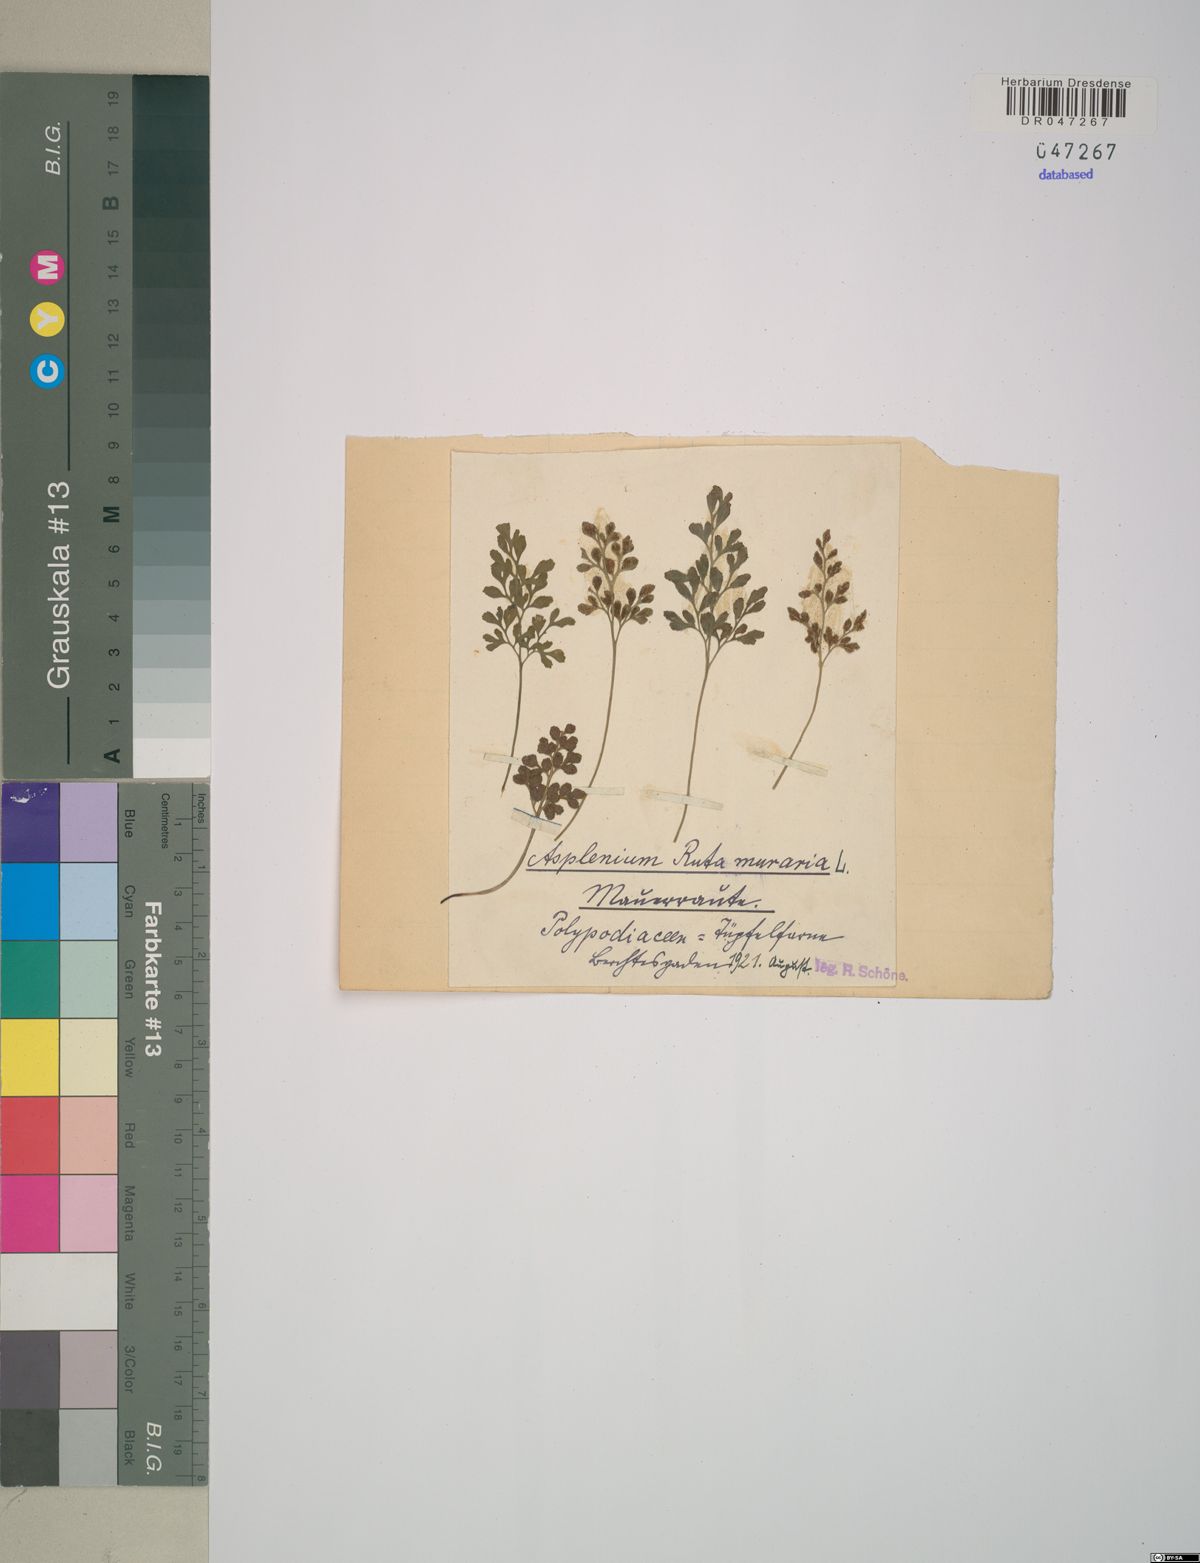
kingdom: Plantae
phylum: Tracheophyta
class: Polypodiopsida
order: Polypodiales
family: Aspleniaceae
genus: Asplenium
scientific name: Asplenium ruta-muraria
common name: Wall-rue
